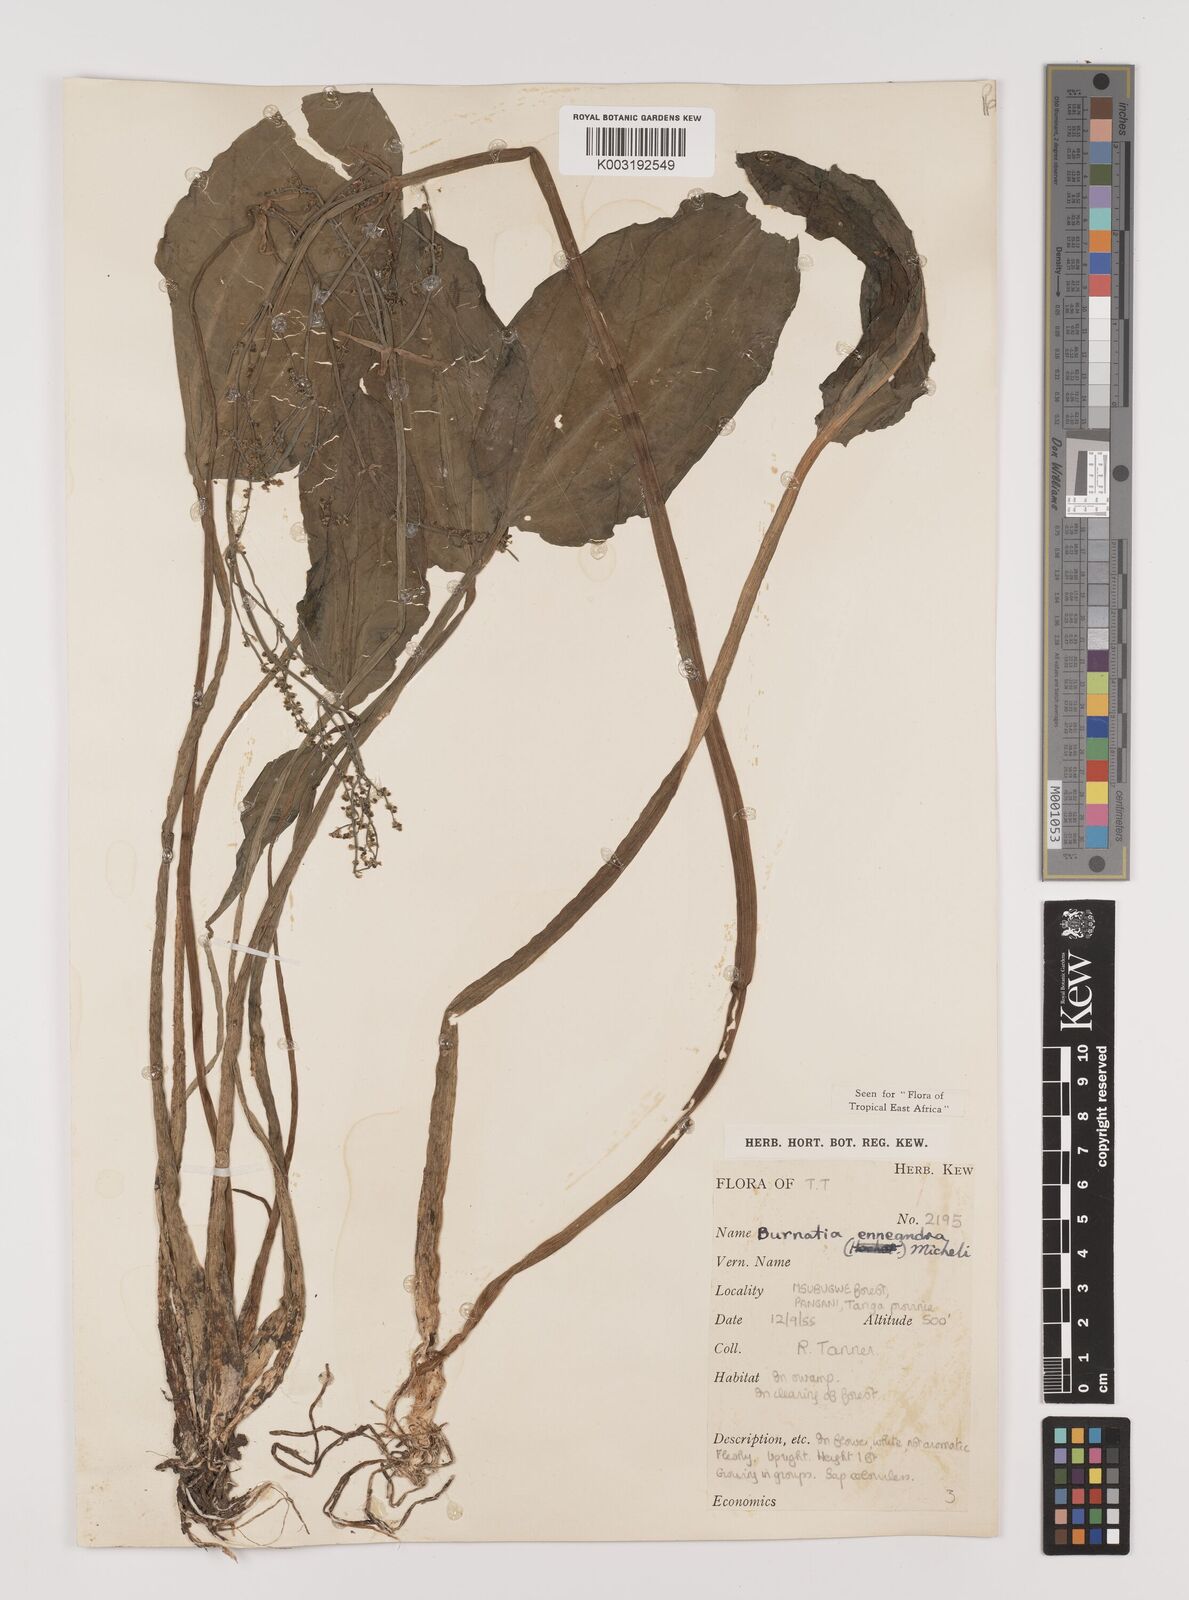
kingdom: Plantae
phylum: Tracheophyta
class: Liliopsida
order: Alismatales
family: Alismataceae
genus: Burnatia
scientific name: Burnatia enneandra
